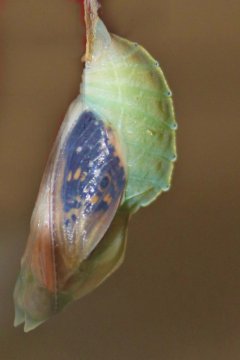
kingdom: Animalia
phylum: Arthropoda
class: Insecta
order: Lepidoptera
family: Nymphalidae
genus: Asterocampa
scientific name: Asterocampa celtis
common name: Hackberry Emperor
